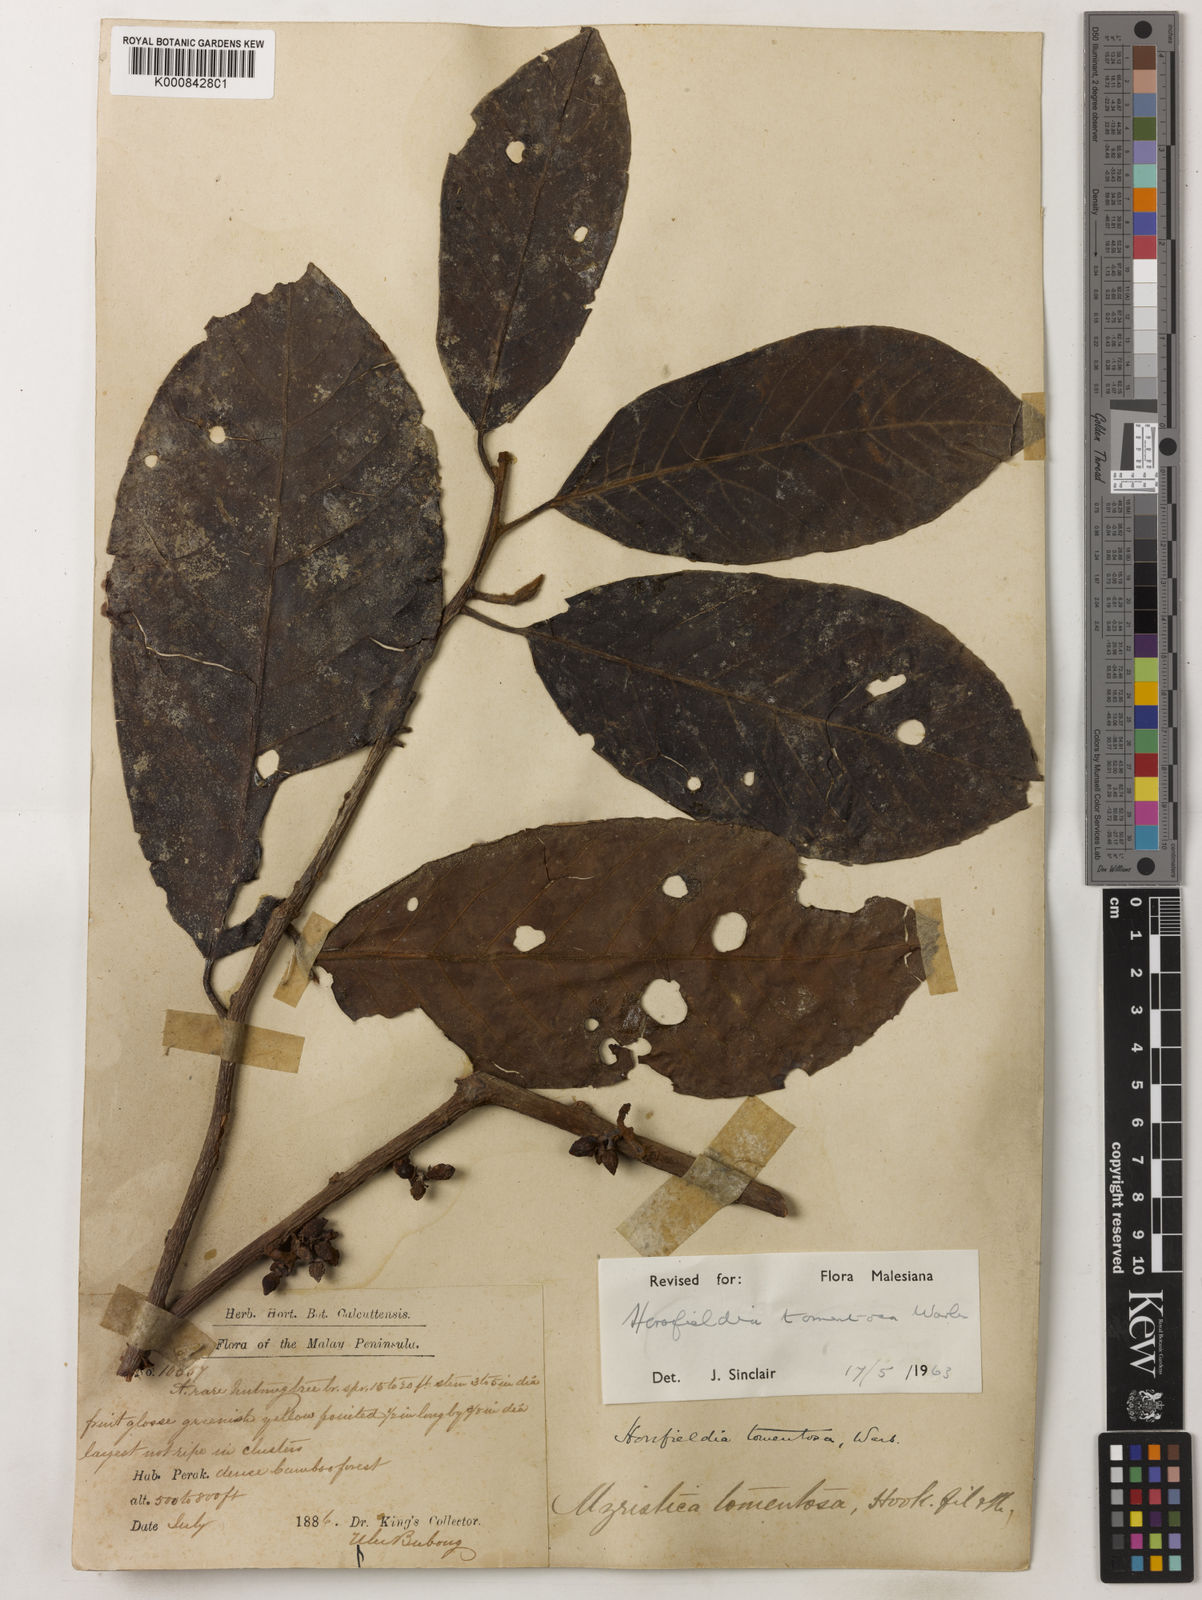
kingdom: Plantae
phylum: Tracheophyta
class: Magnoliopsida
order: Magnoliales
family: Myristicaceae
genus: Horsfieldia
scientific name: Horsfieldia tomentosa
